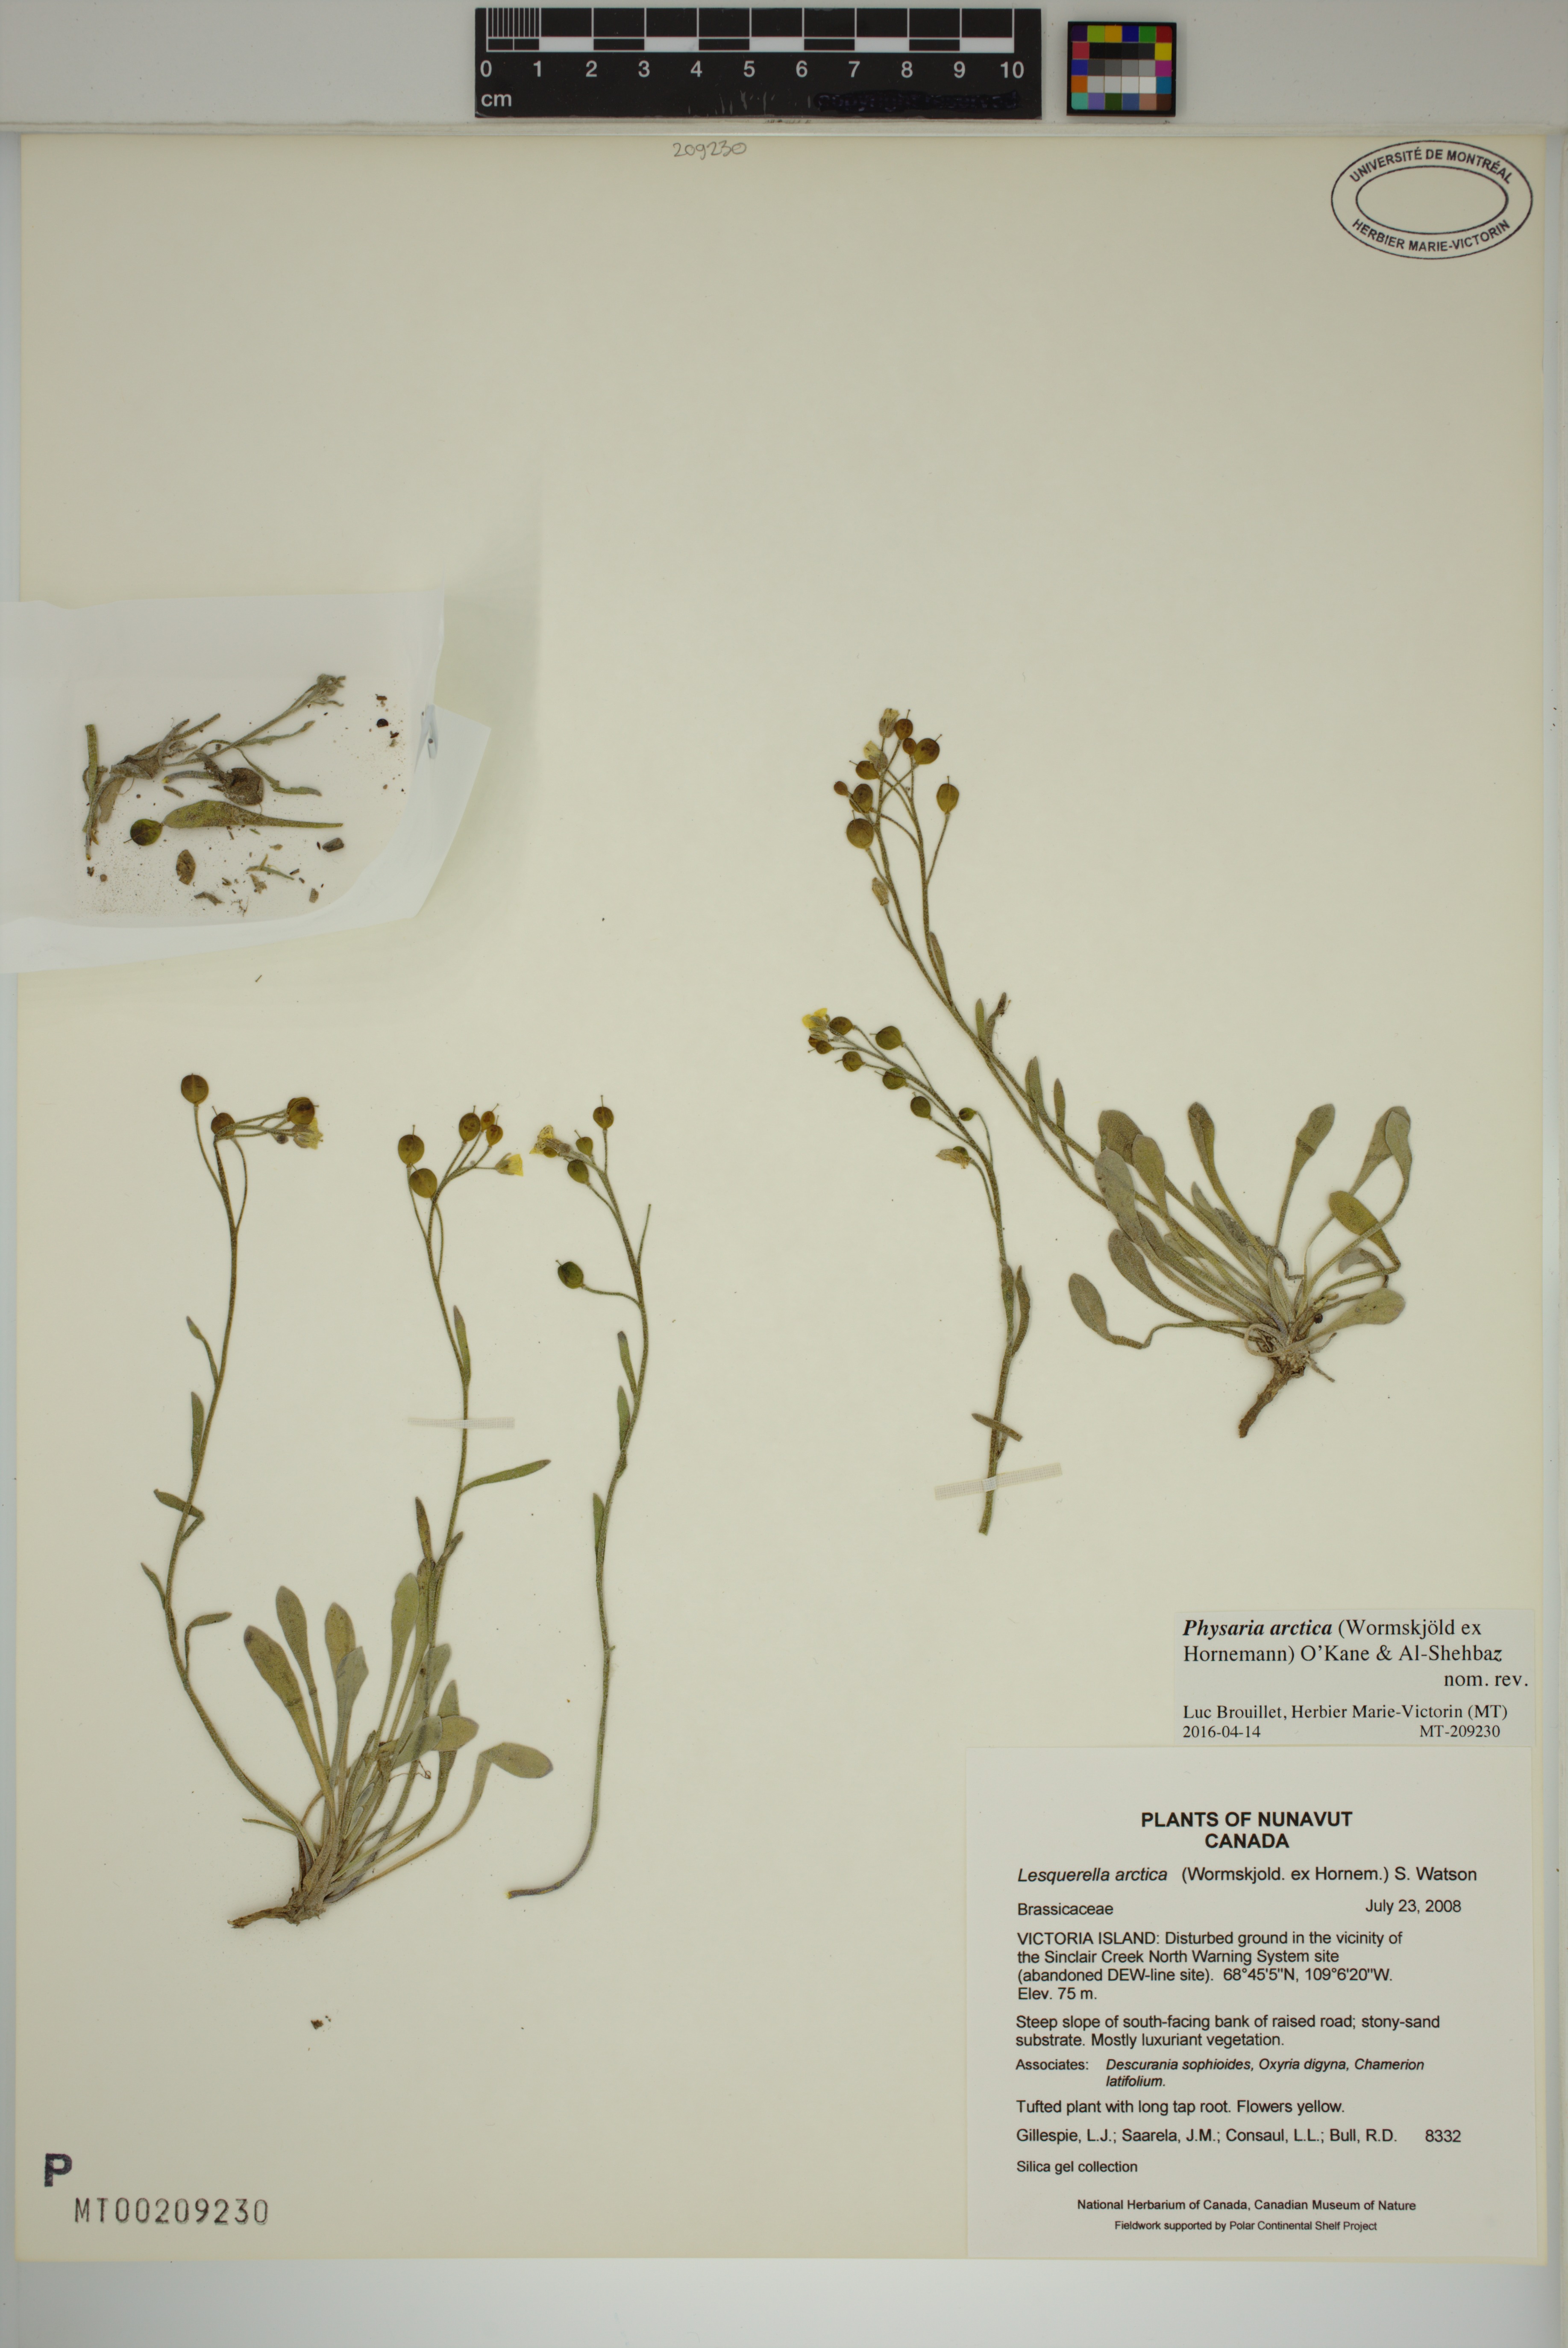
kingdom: Plantae
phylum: Tracheophyta
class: Magnoliopsida
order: Brassicales
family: Brassicaceae
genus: Physaria
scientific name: Physaria arctica
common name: Arctic bladderpod
